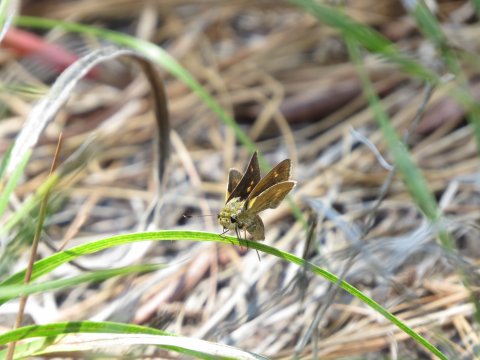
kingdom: Animalia
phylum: Arthropoda
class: Insecta
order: Lepidoptera
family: Hesperiidae
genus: Polites
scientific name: Polites egeremet
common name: Northern Broken-Dash
